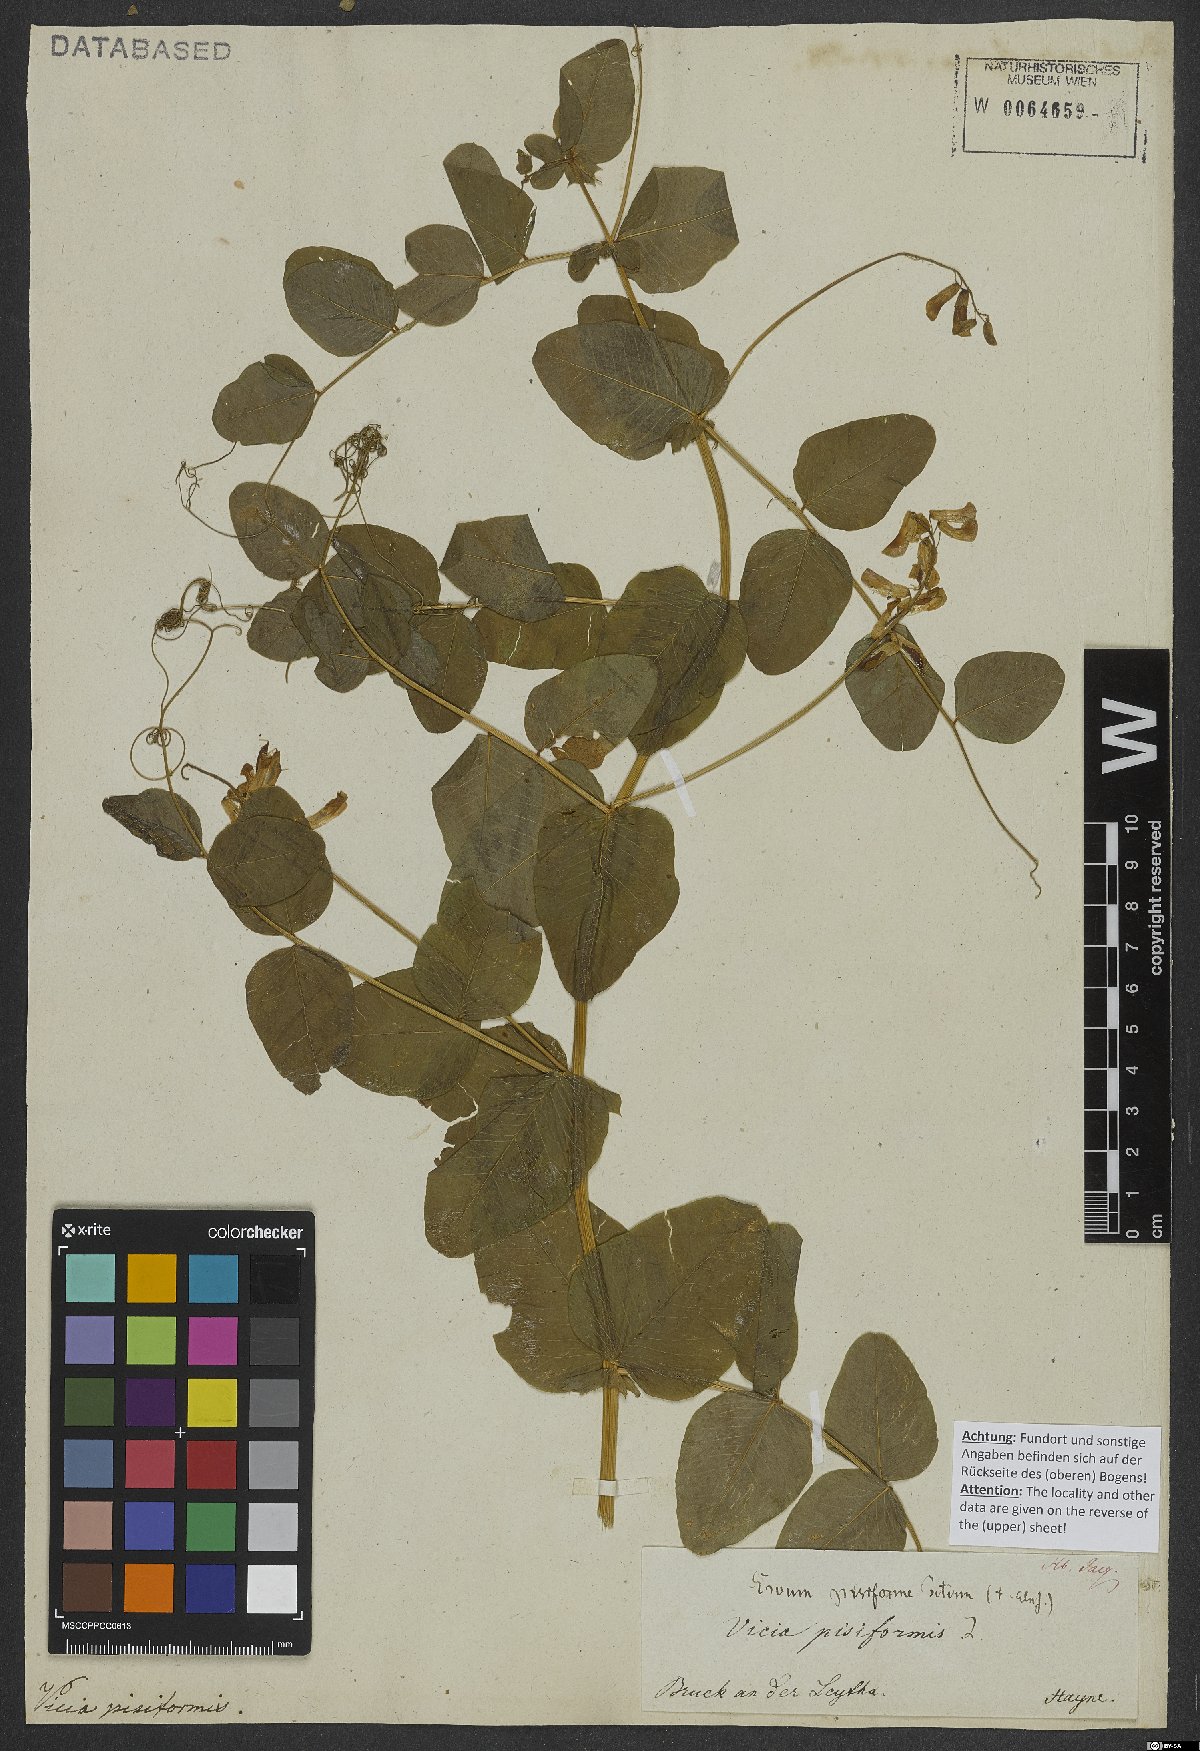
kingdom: Plantae
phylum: Tracheophyta
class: Magnoliopsida
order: Fabales
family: Fabaceae
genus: Vicia
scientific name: Vicia pisiformis
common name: Pale-flower vetch
